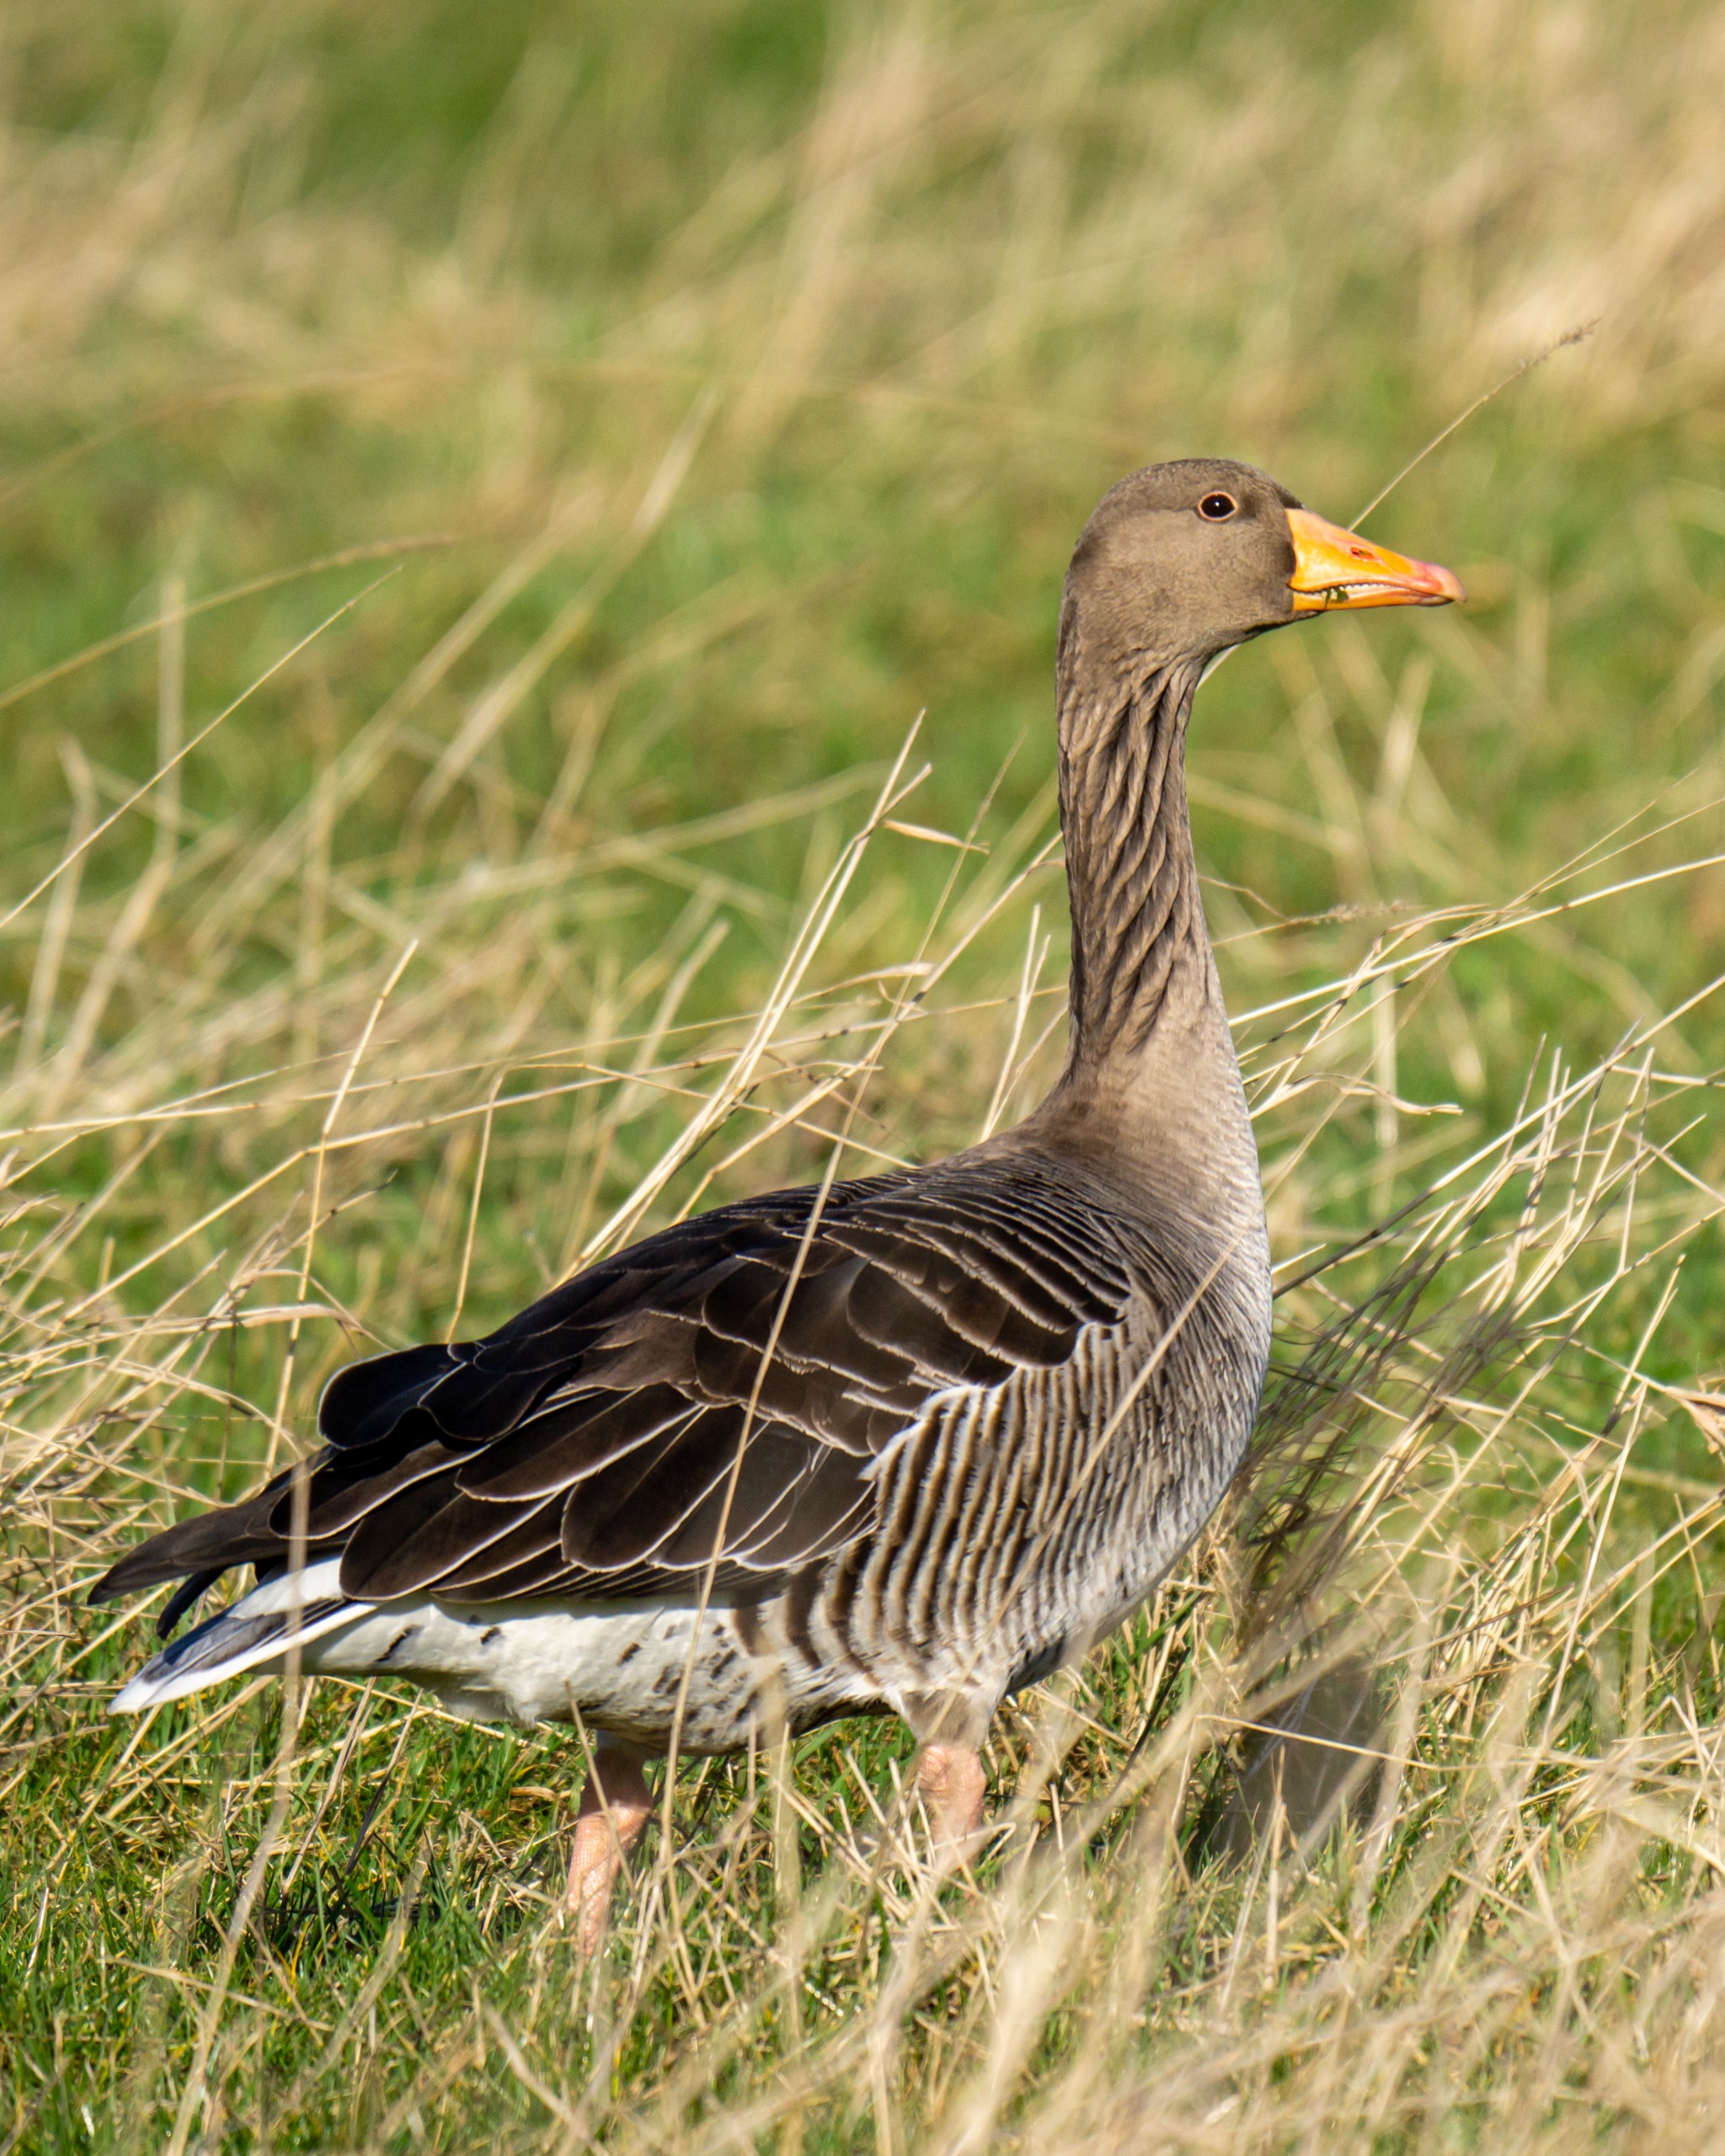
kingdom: Animalia
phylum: Chordata
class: Aves
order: Anseriformes
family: Anatidae
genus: Anser
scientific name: Anser anser
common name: Grågås
